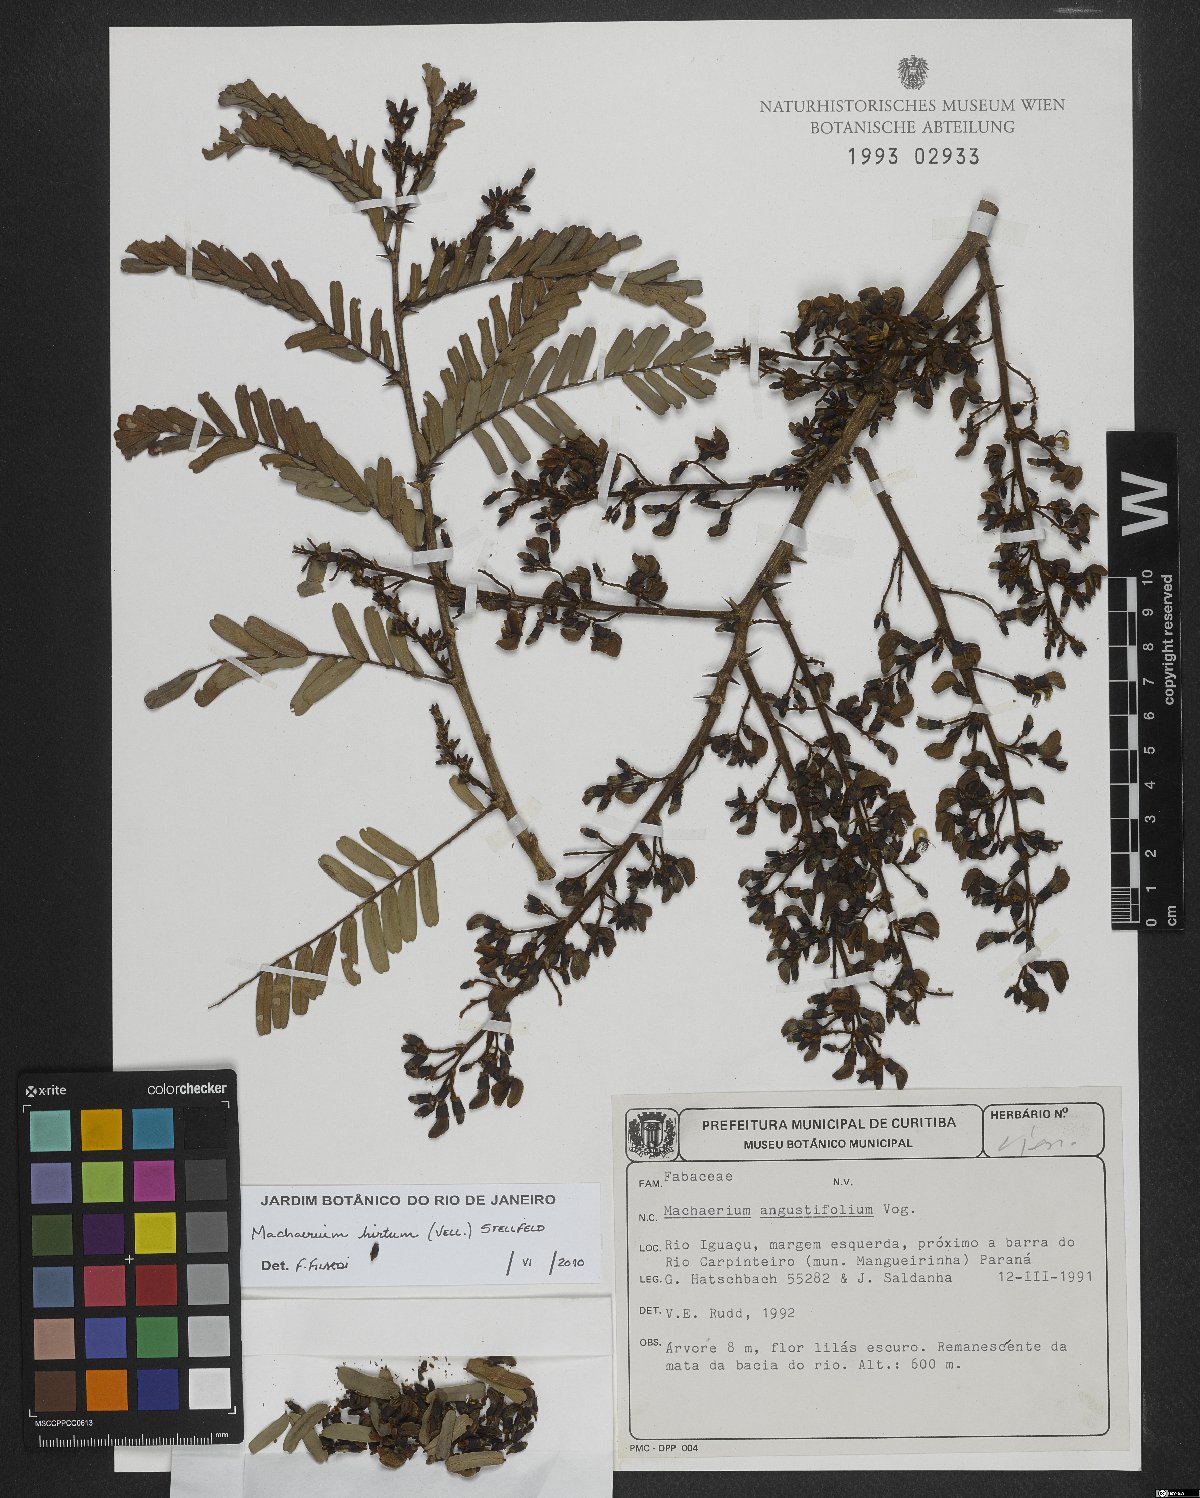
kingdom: Plantae
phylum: Tracheophyta
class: Magnoliopsida
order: Fabales
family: Fabaceae
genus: Machaerium
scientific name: Machaerium hirtum
